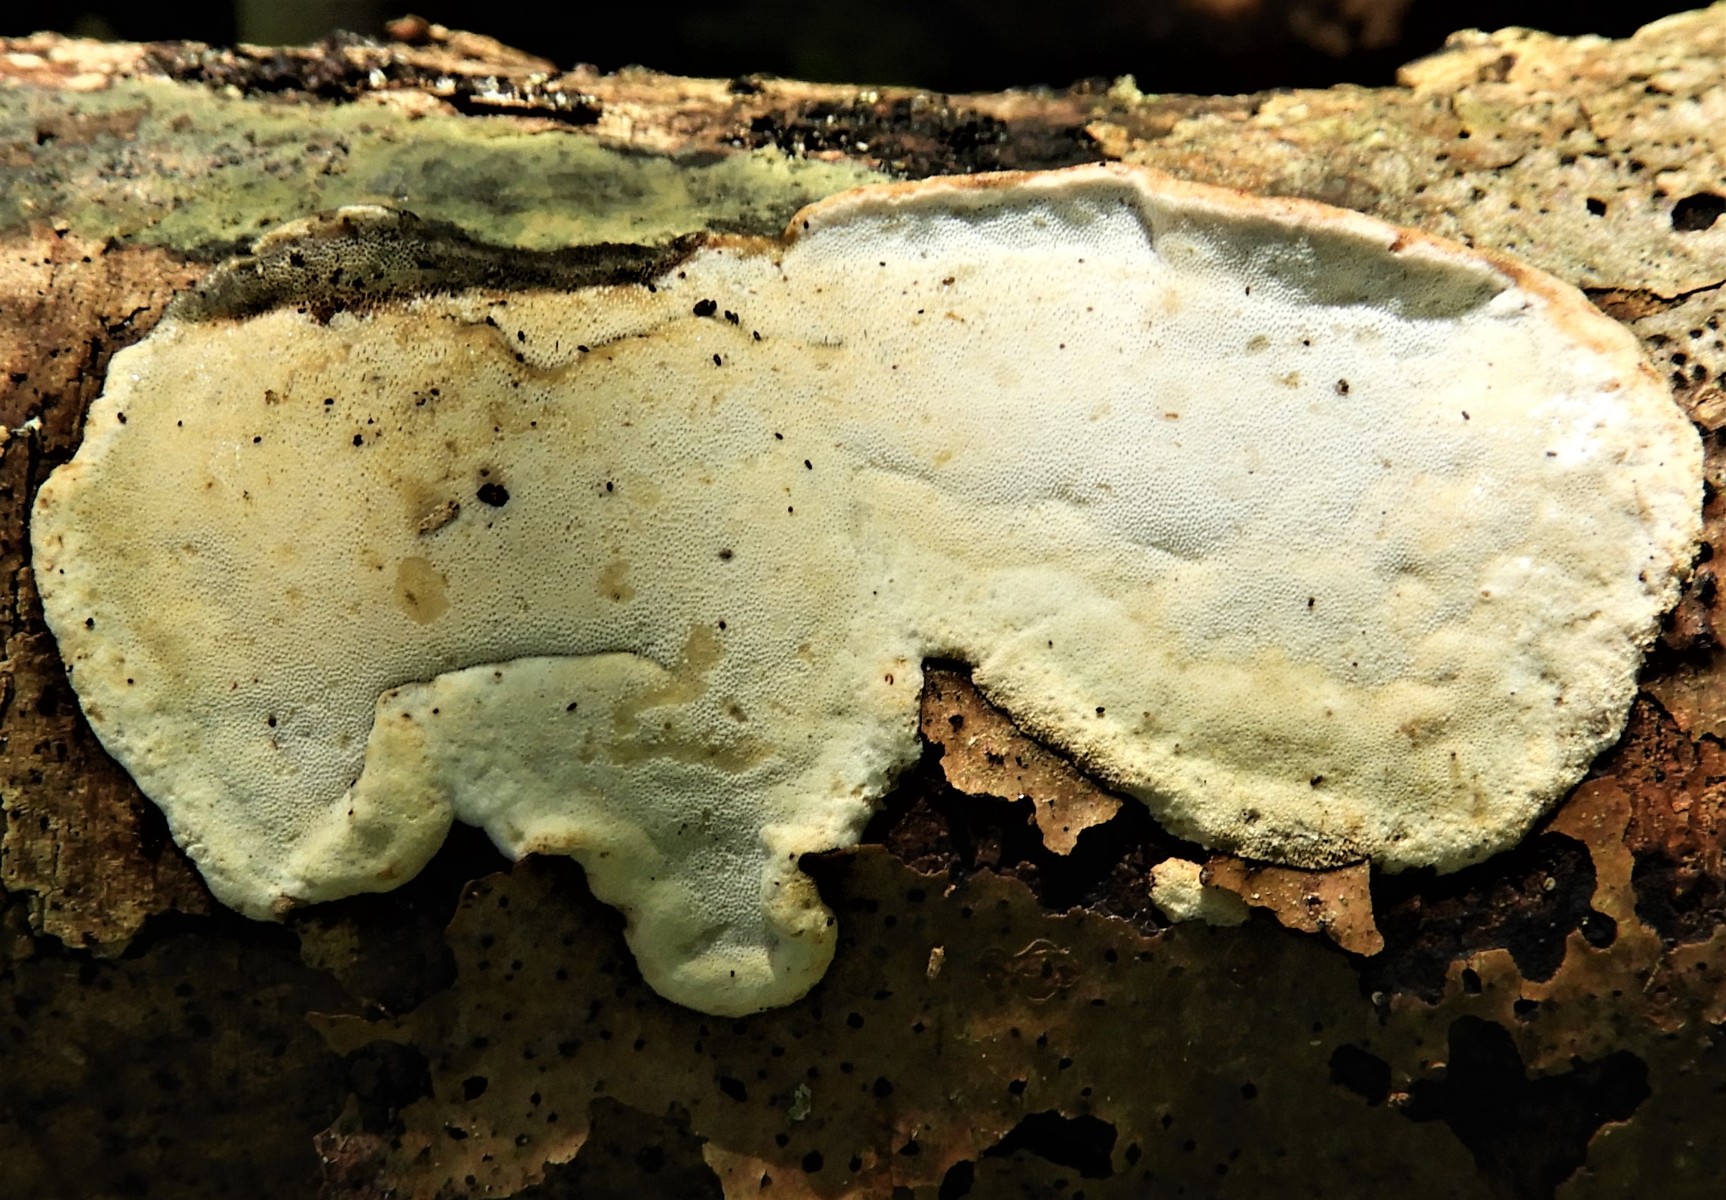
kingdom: Fungi
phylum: Basidiomycota
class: Agaricomycetes
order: Polyporales
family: Incrustoporiaceae
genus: Skeletocutis
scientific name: Skeletocutis nemoralis
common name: stor krystalporesvamp
